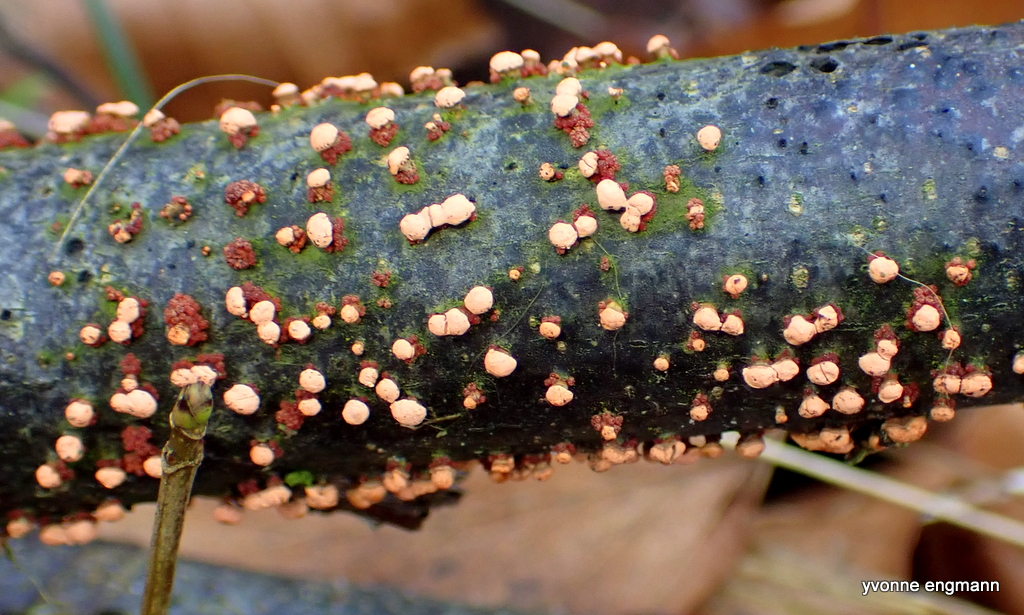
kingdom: Fungi
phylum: Ascomycota
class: Sordariomycetes
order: Hypocreales
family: Nectriaceae
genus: Nectria
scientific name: Nectria cinnabarina
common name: almindelig cinnobersvamp
